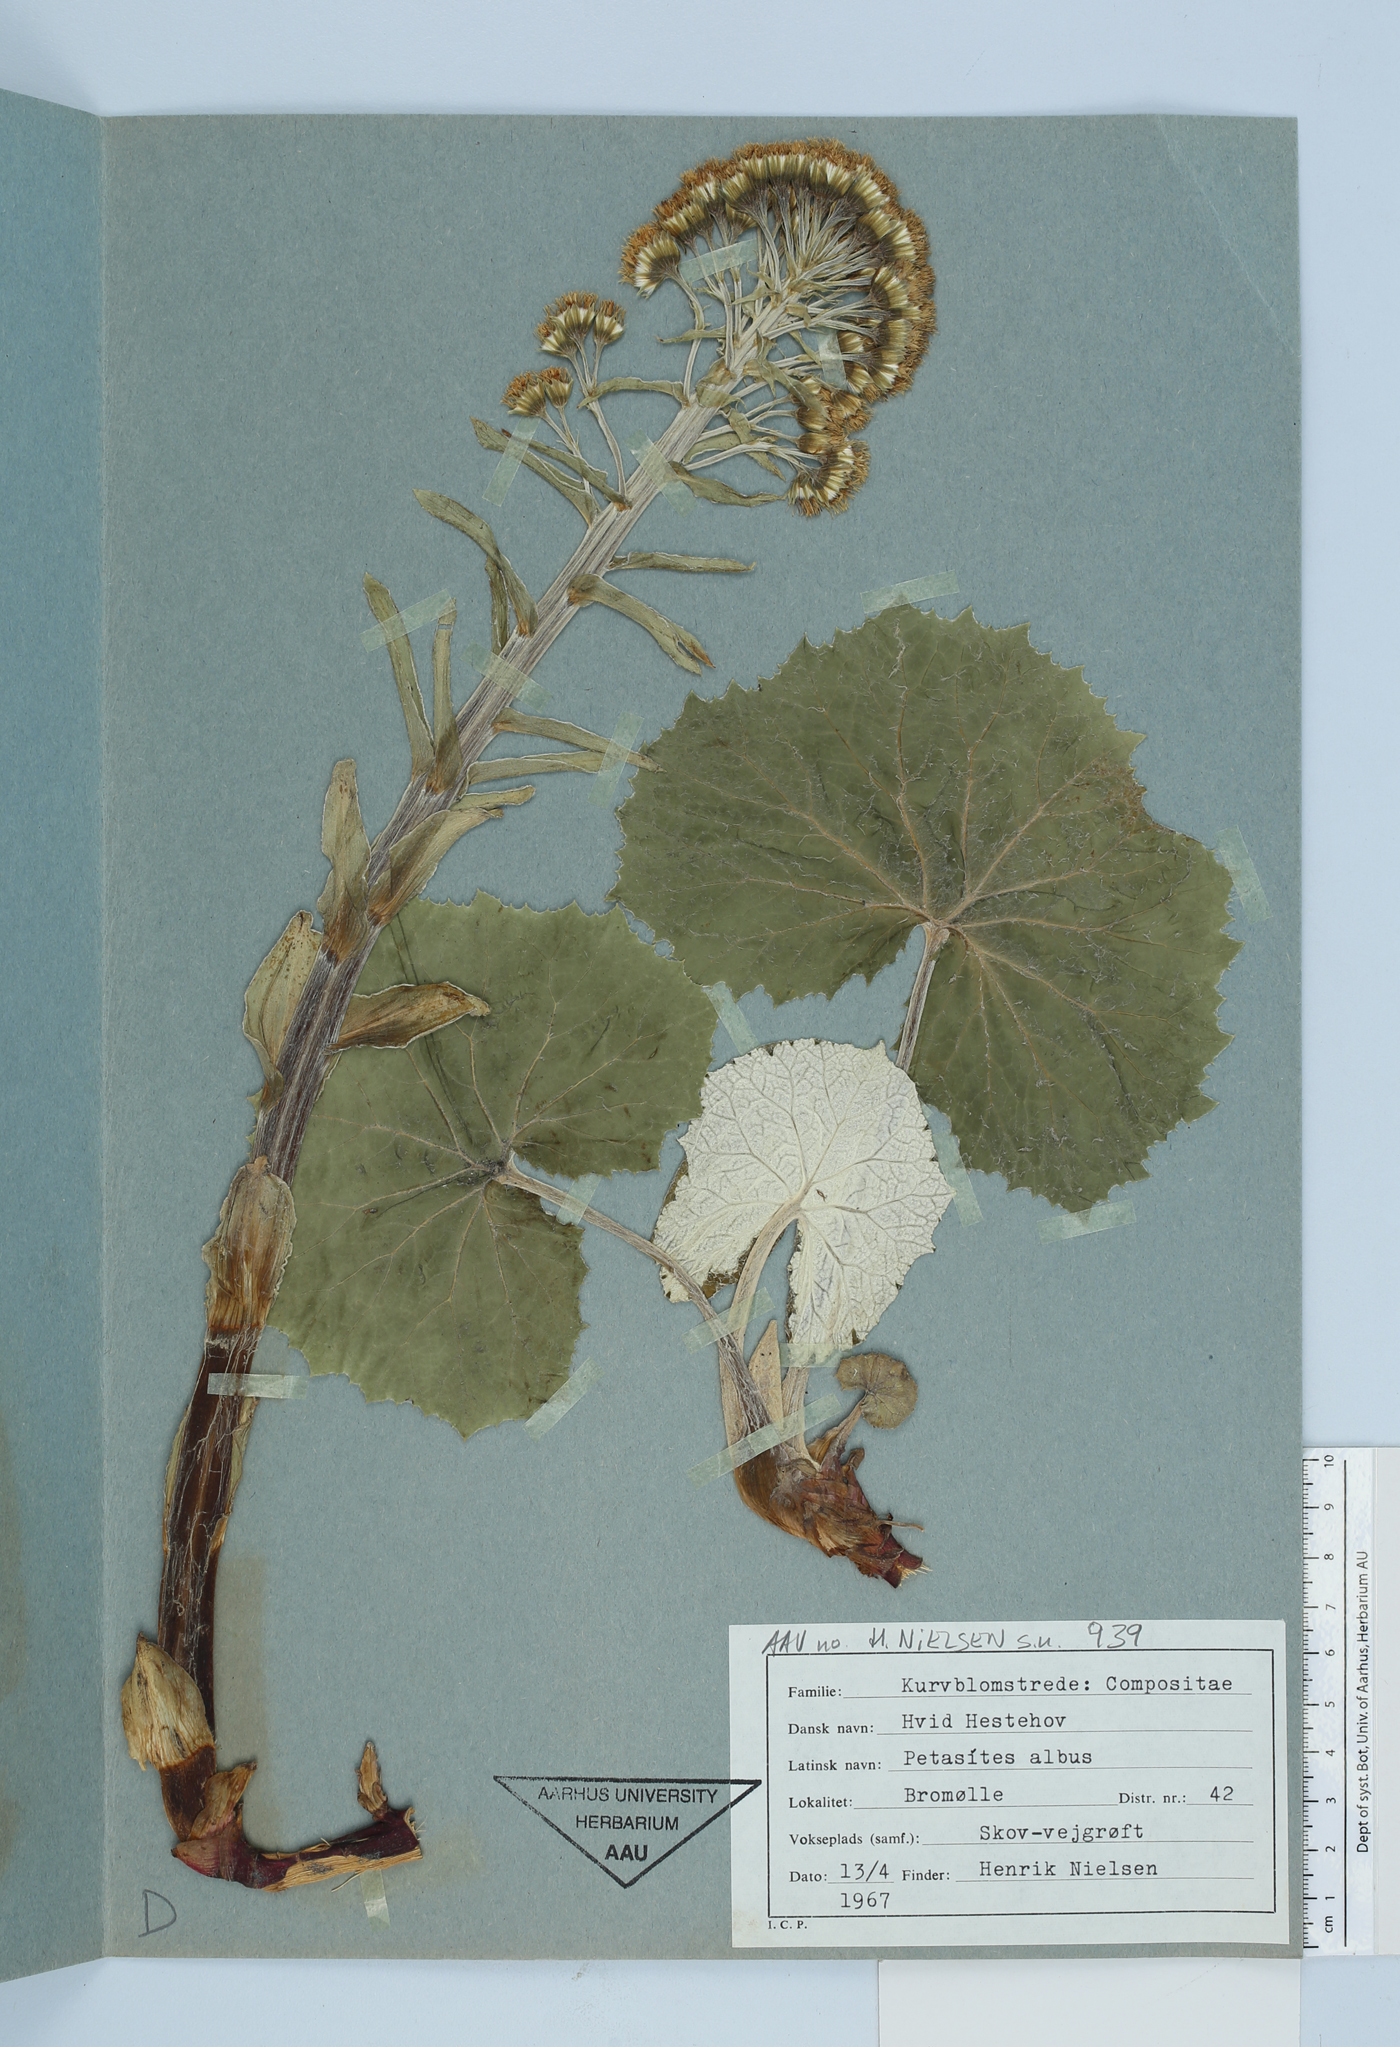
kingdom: Plantae
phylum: Tracheophyta
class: Magnoliopsida
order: Asterales
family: Asteraceae
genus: Petasites
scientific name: Petasites albus
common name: White butterbur
